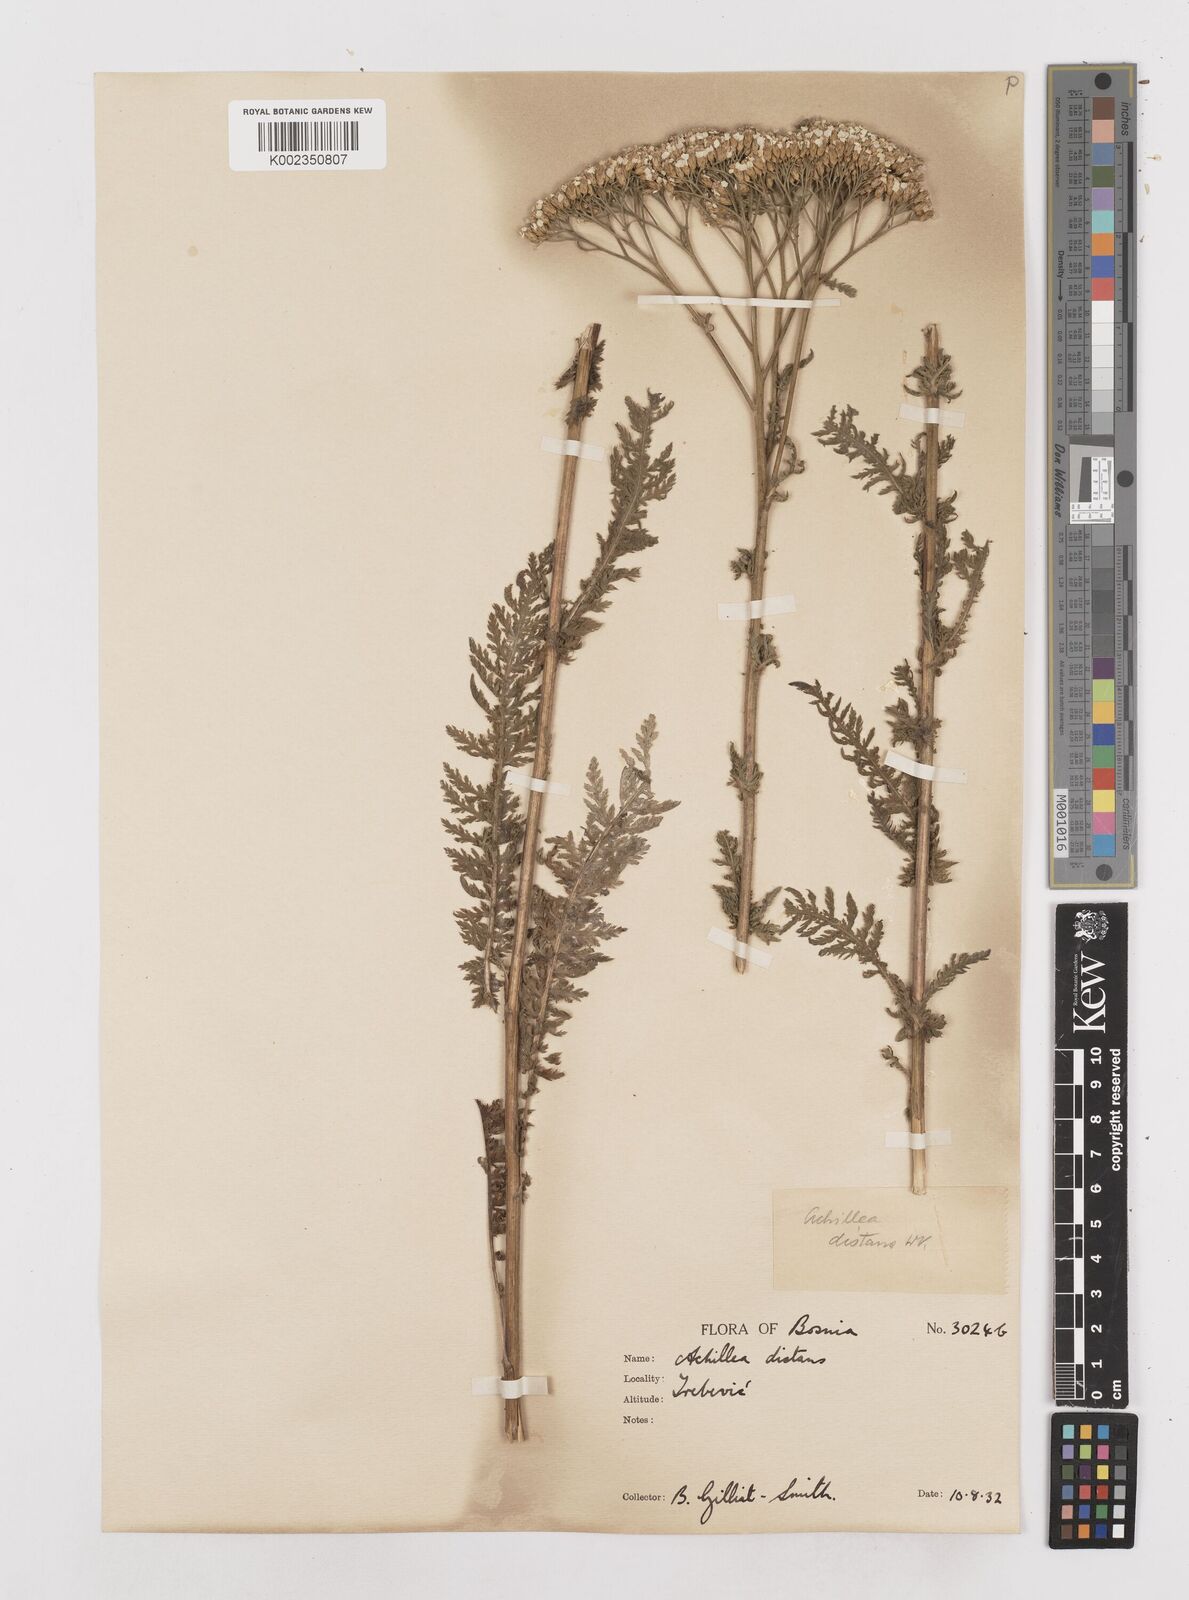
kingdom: Plantae
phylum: Tracheophyta
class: Magnoliopsida
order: Asterales
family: Asteraceae
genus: Achillea
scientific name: Achillea distans
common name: Tall yarrow
